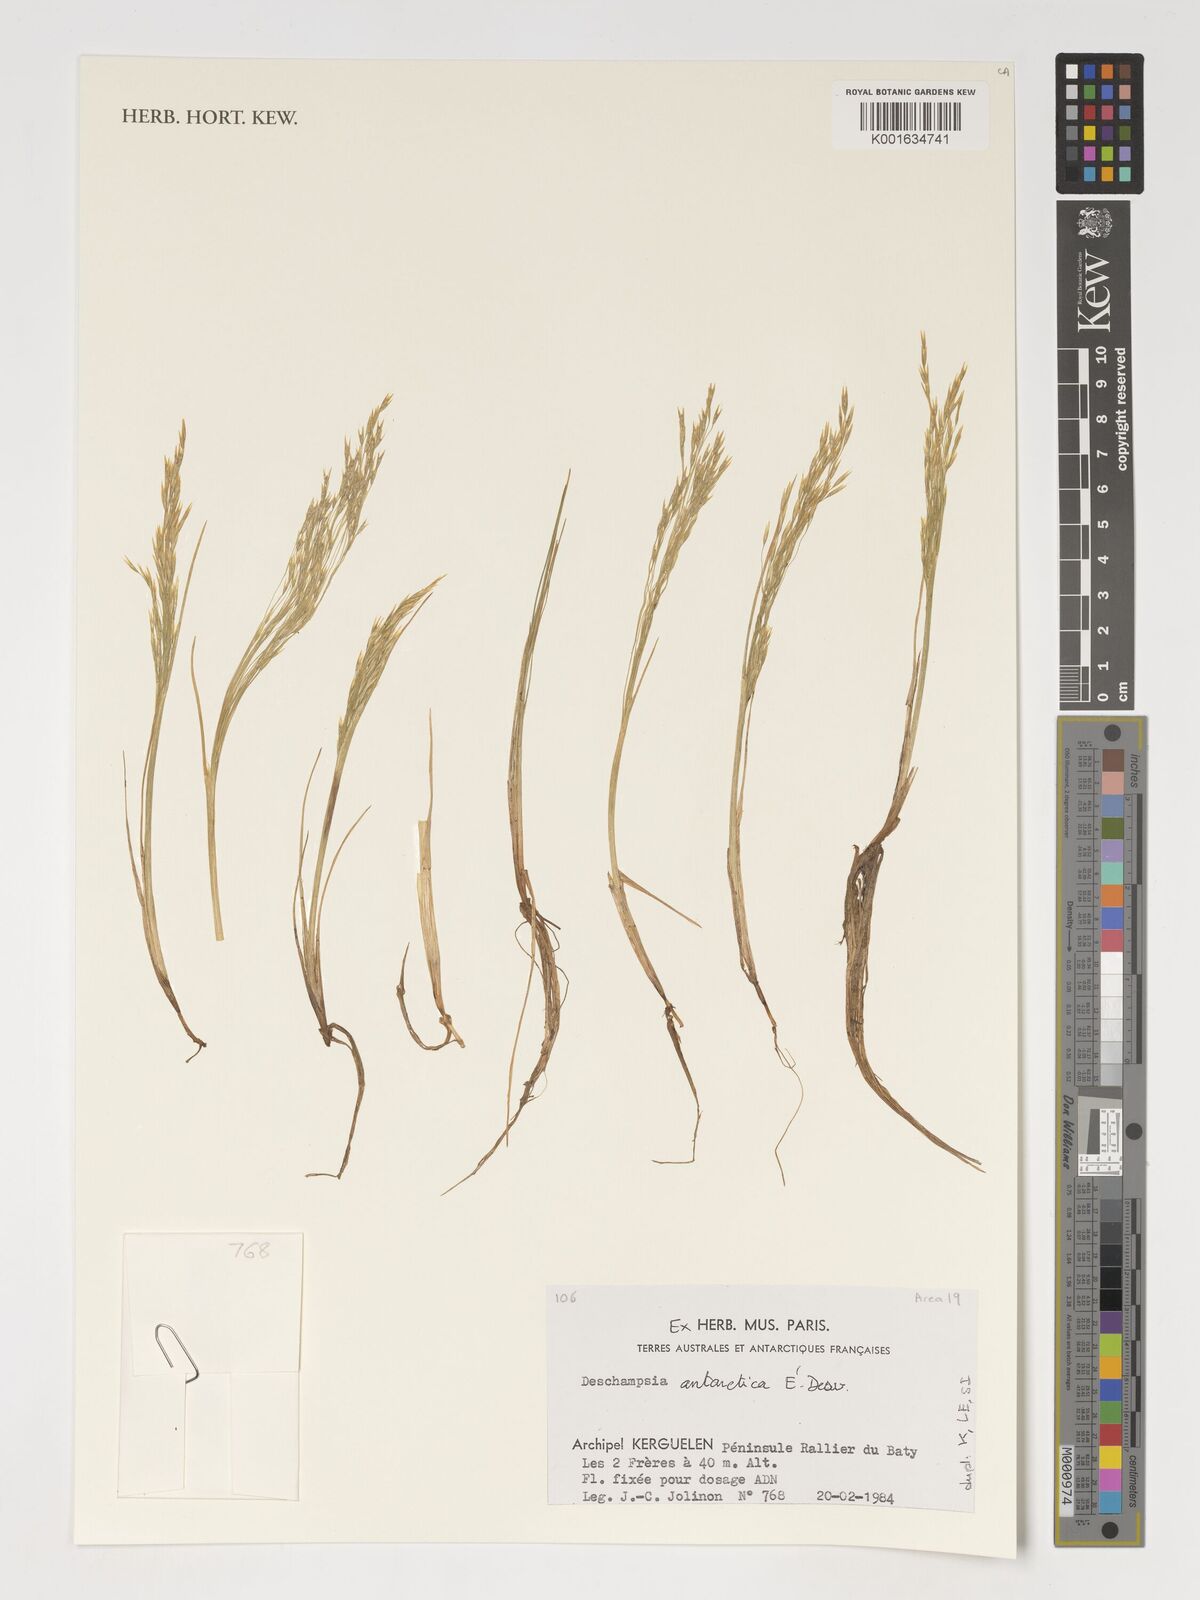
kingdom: Plantae
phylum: Tracheophyta
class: Liliopsida
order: Poales
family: Poaceae
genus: Deschampsia
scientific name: Deschampsia antarctica
